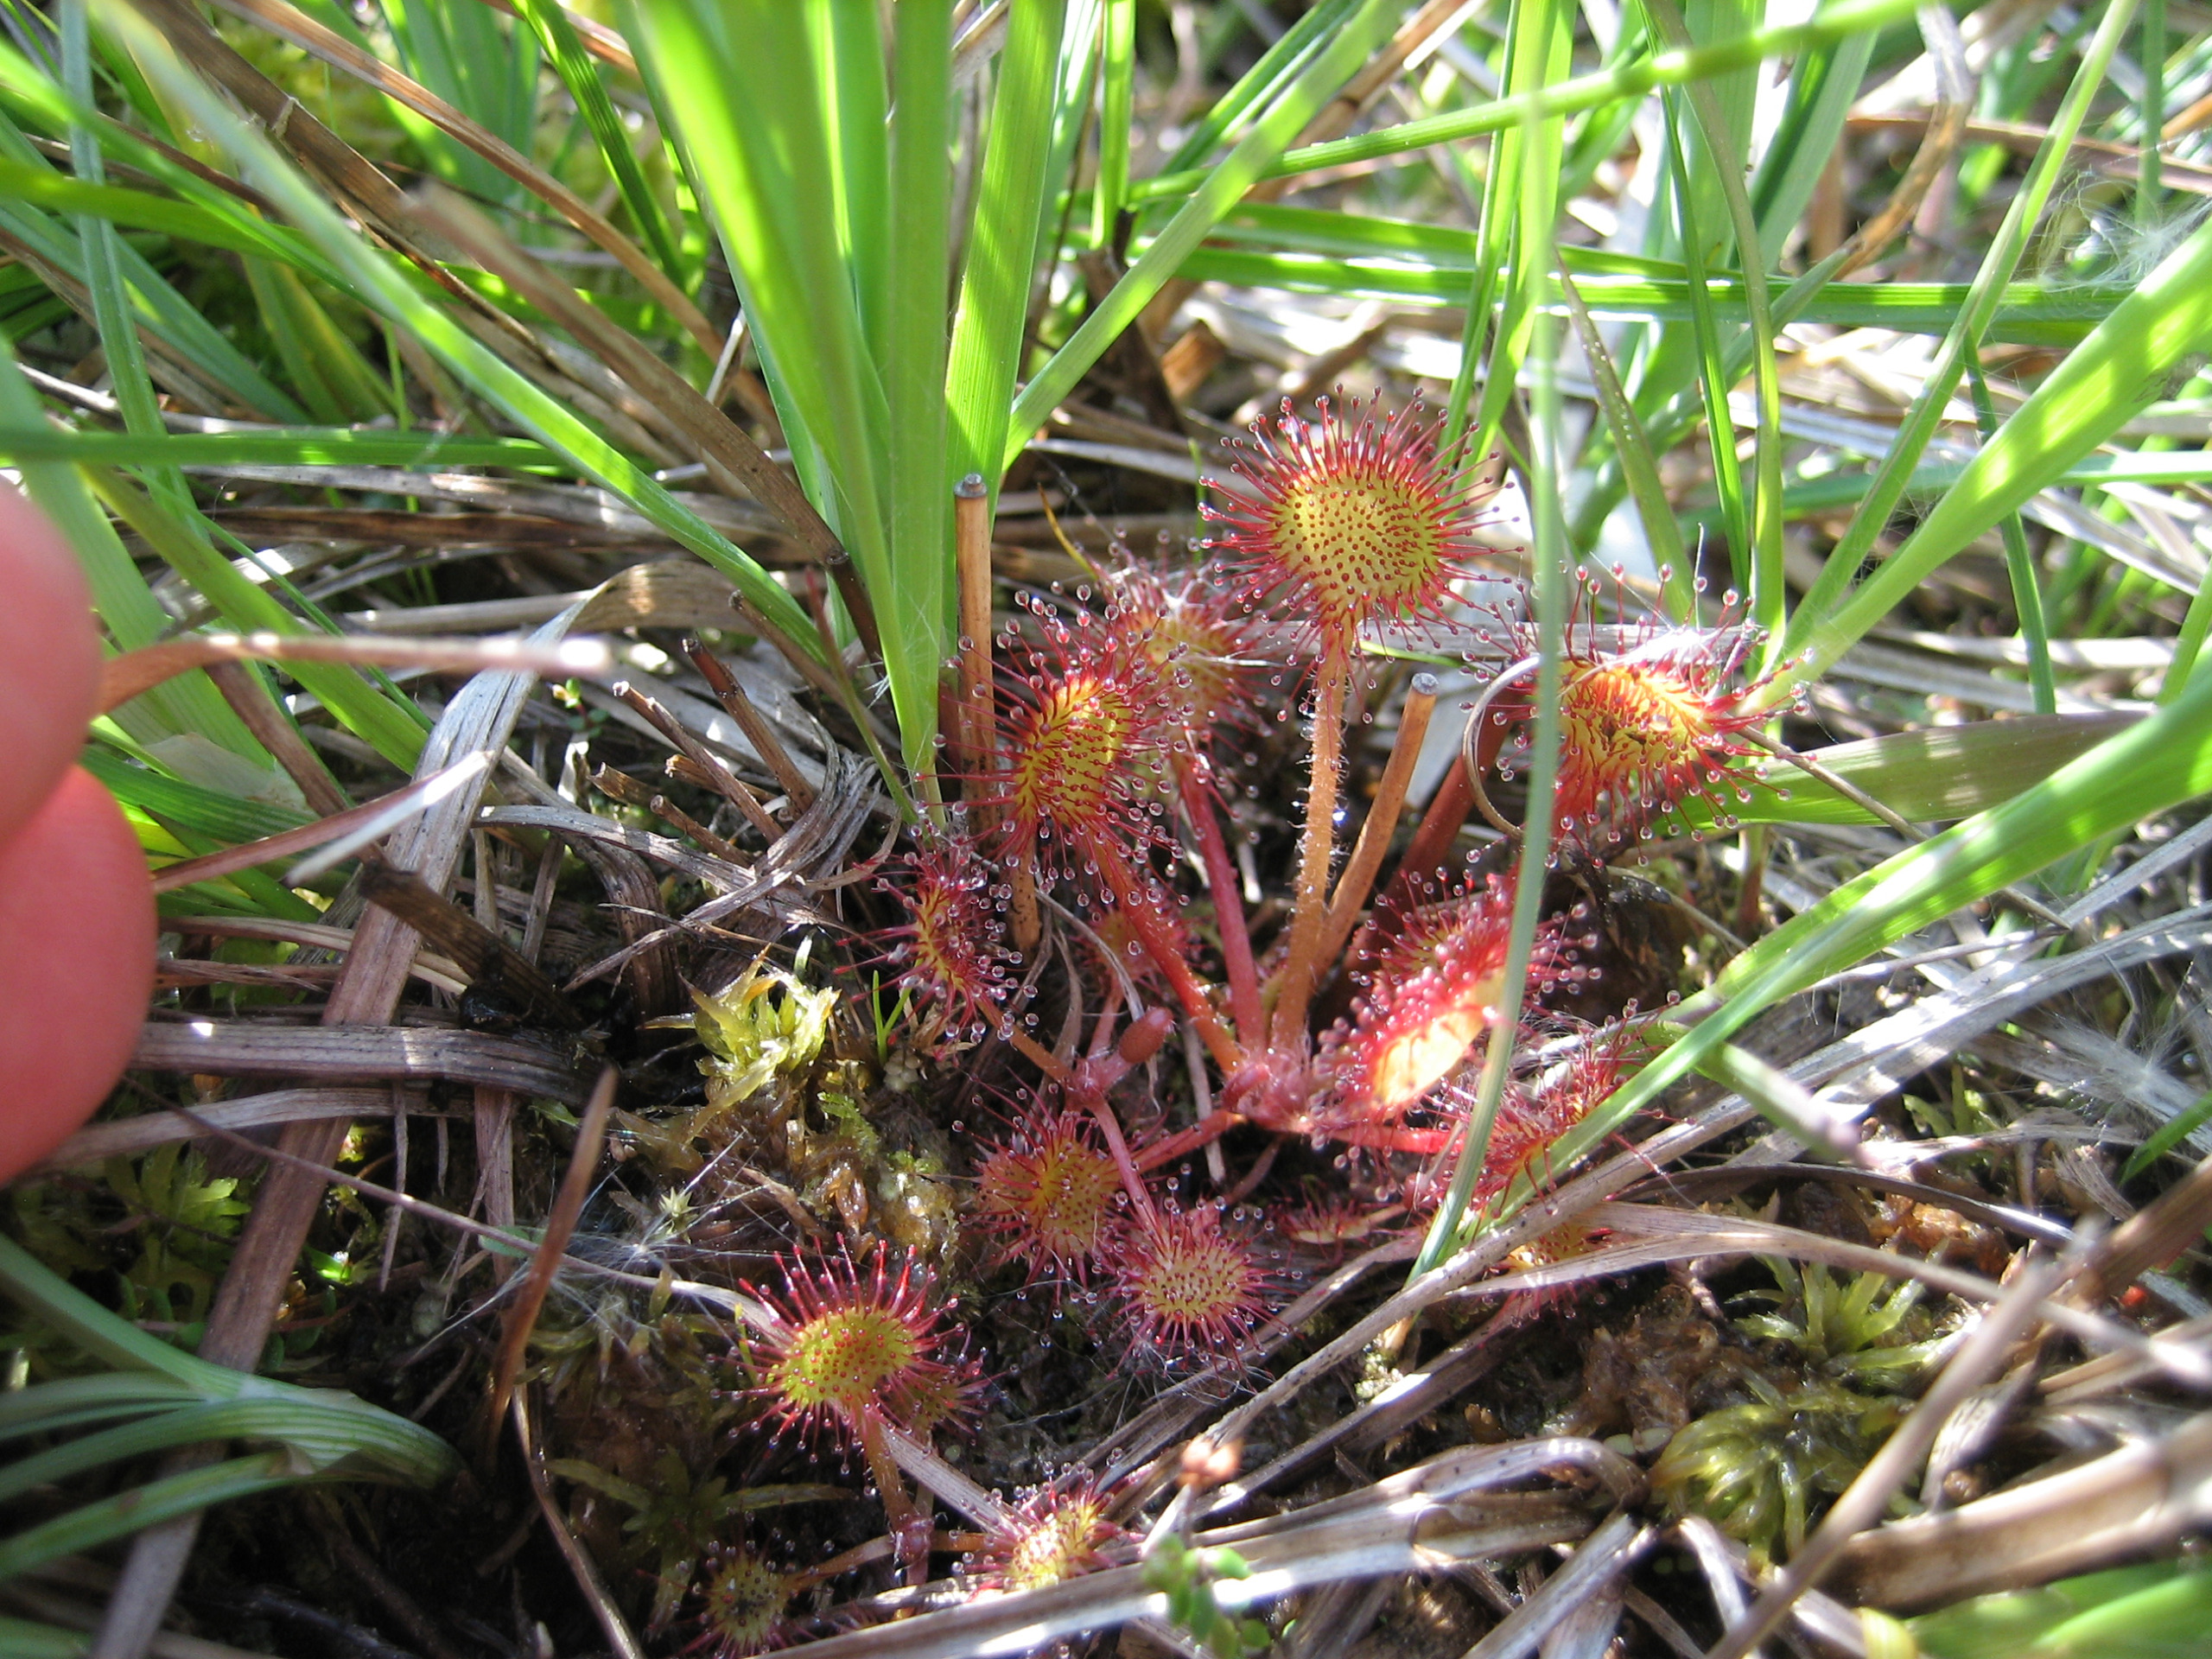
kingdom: Plantae
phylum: Tracheophyta
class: Magnoliopsida
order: Caryophyllales
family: Droseraceae
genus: Drosera
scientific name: Drosera rotundifolia
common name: Rundbladet soldug
